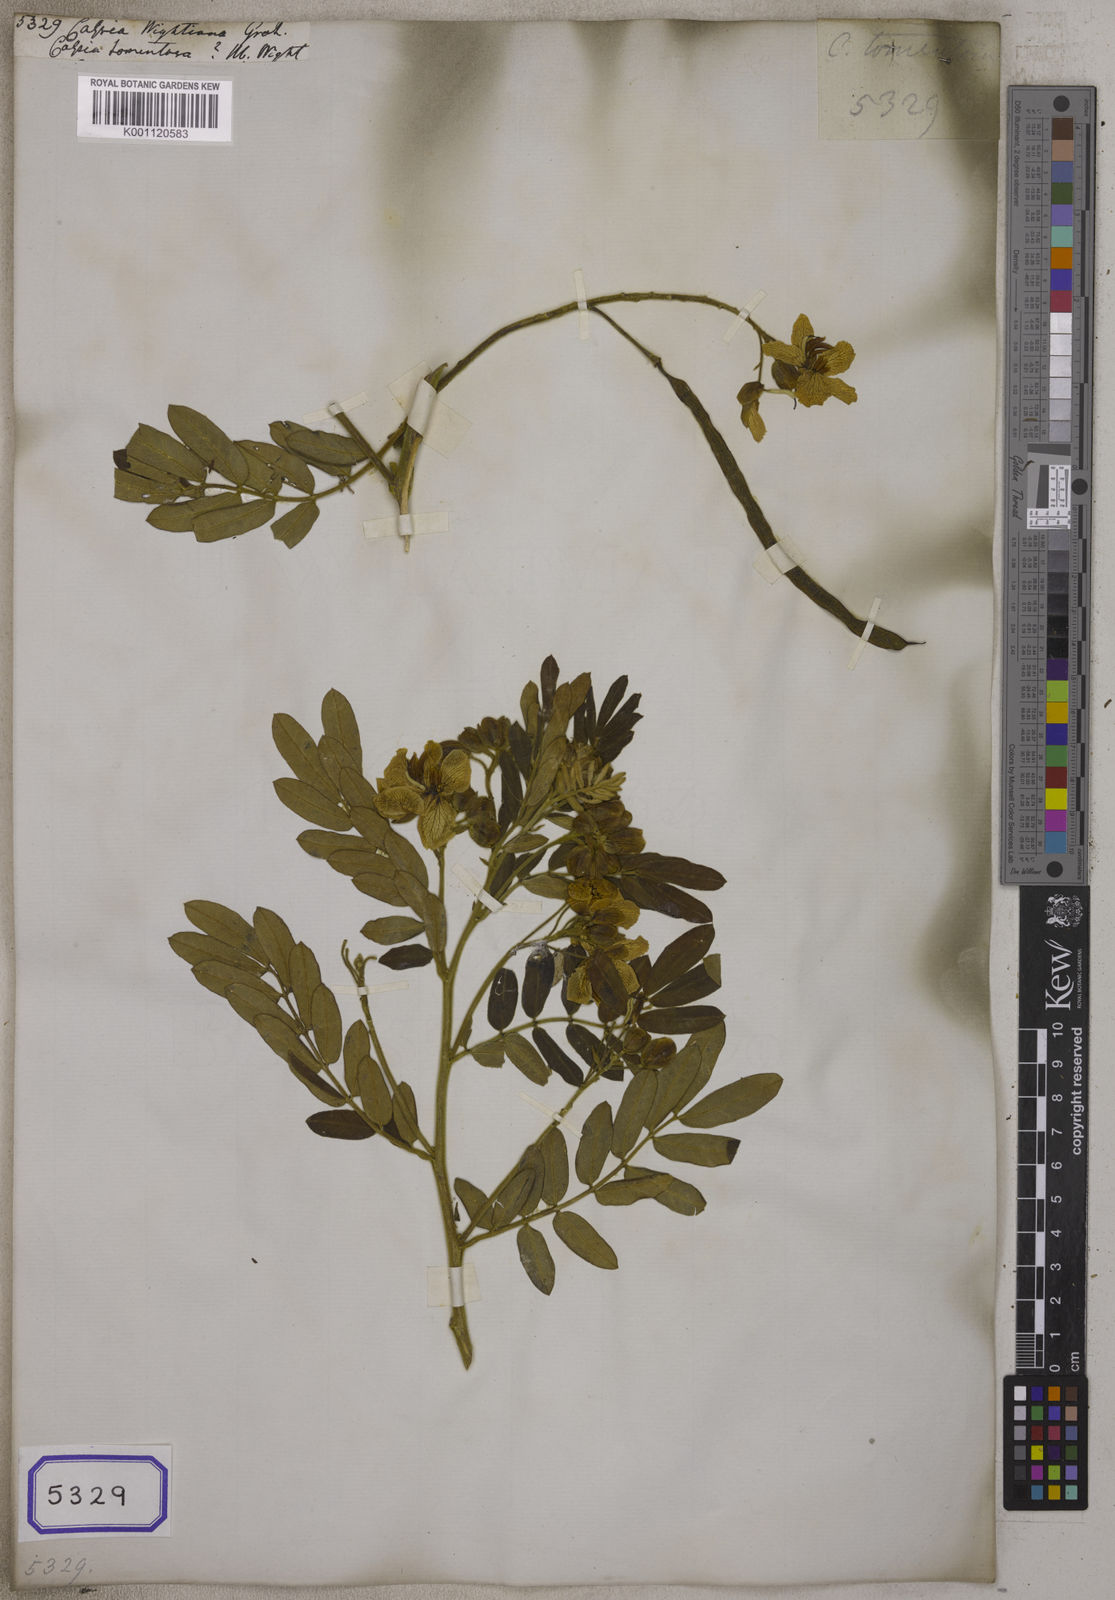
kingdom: Plantae
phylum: Tracheophyta
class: Magnoliopsida
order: Fabales
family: Fabaceae
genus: Senna
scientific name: Senna multiglandulosa
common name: Glandular senna
